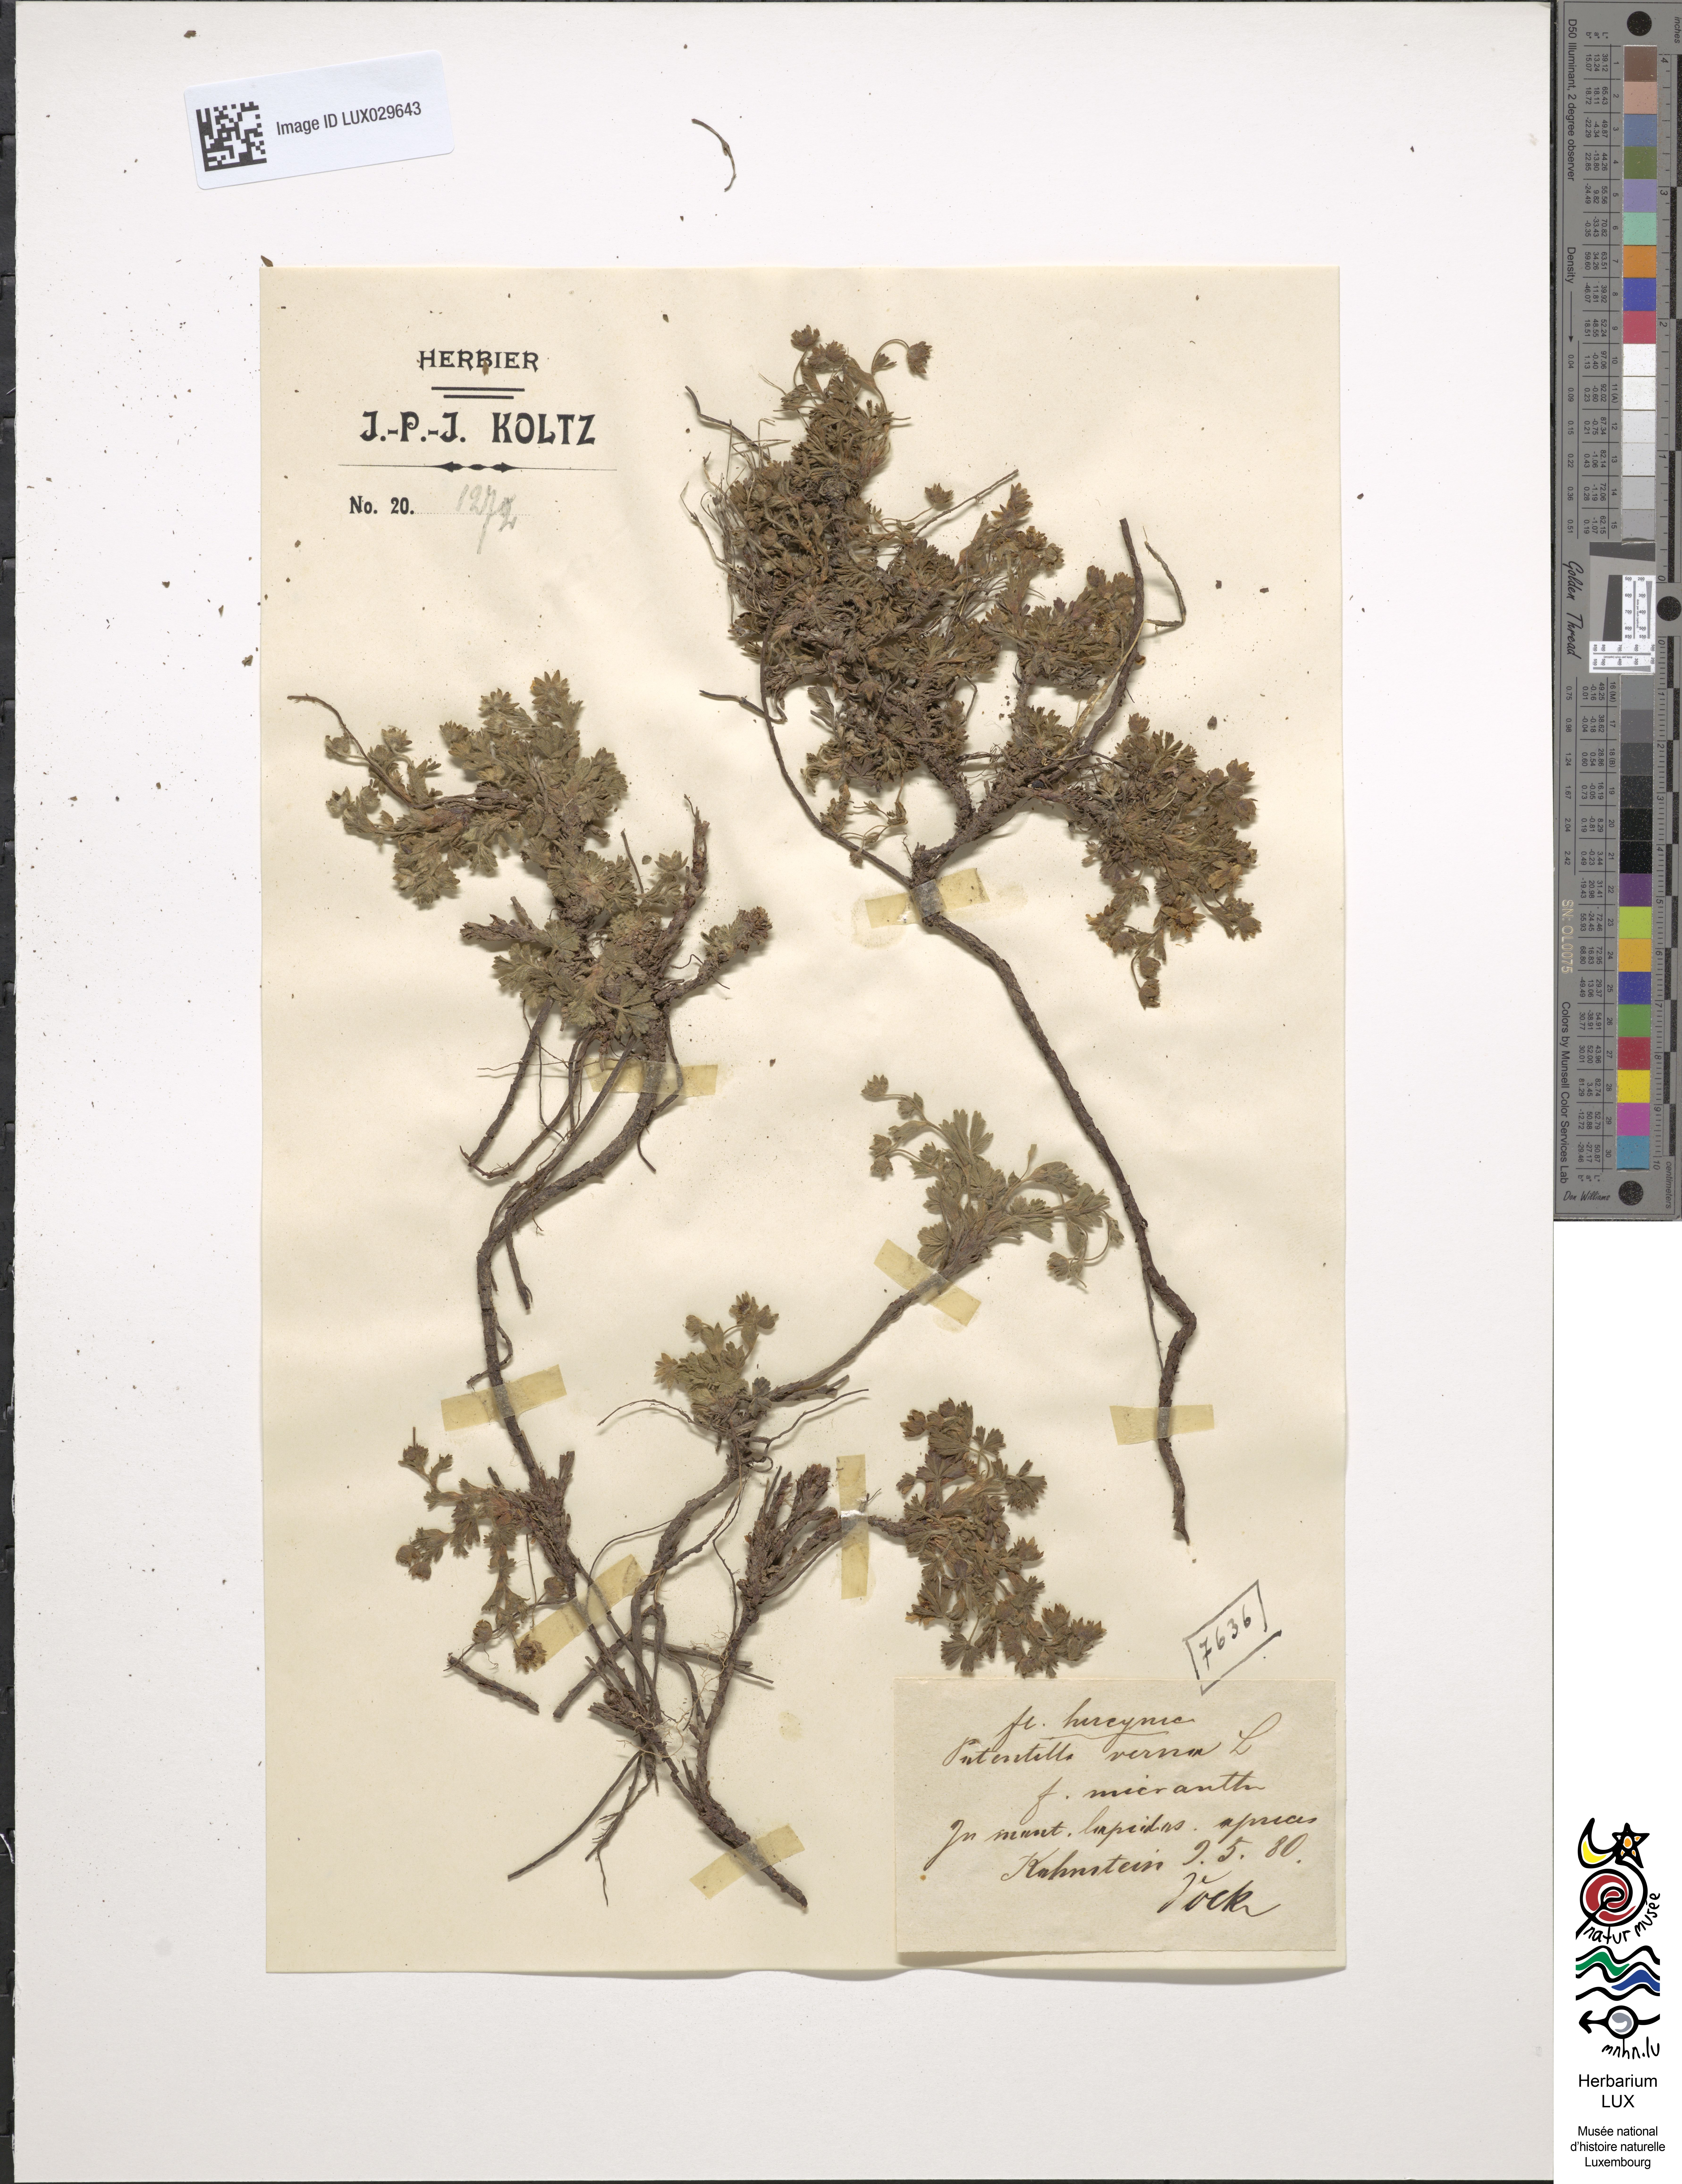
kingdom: Plantae
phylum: Tracheophyta
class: Magnoliopsida
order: Rosales
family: Rosaceae
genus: Potentilla
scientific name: Potentilla verna
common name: Spring cinquefoil
